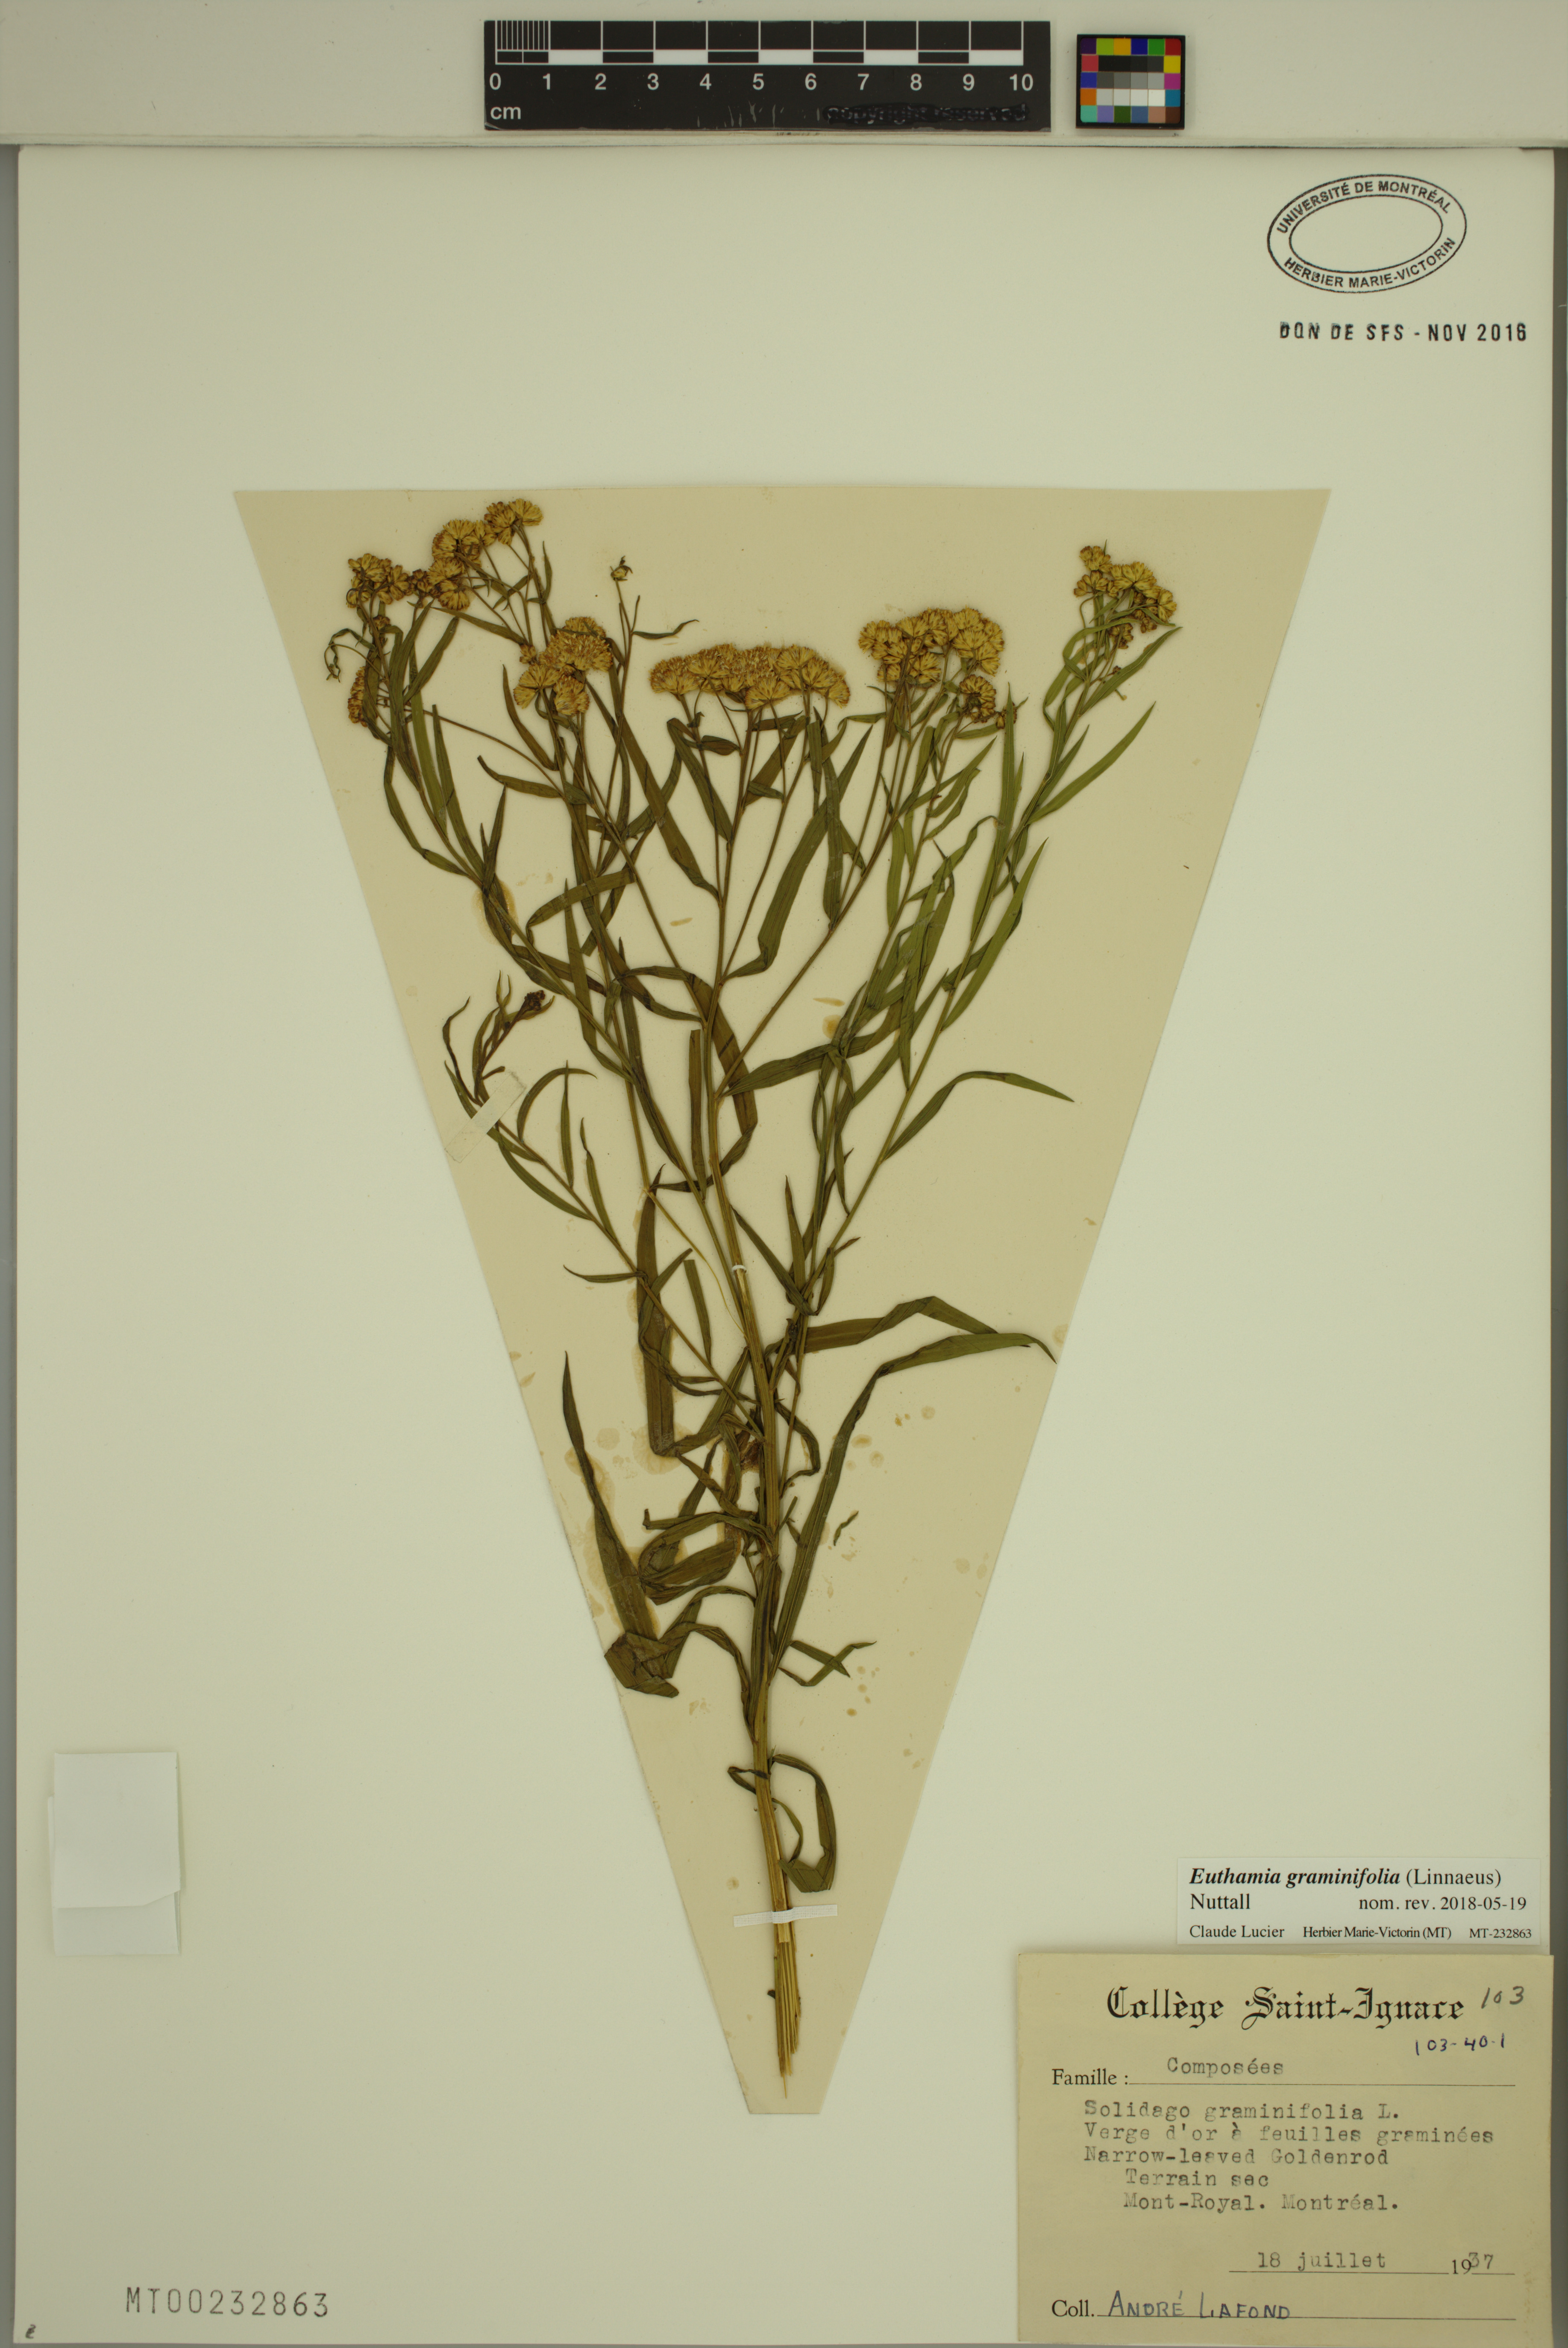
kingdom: Plantae
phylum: Tracheophyta
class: Magnoliopsida
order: Asterales
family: Asteraceae
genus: Euthamia
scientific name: Euthamia graminifolia
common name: Common goldentop
